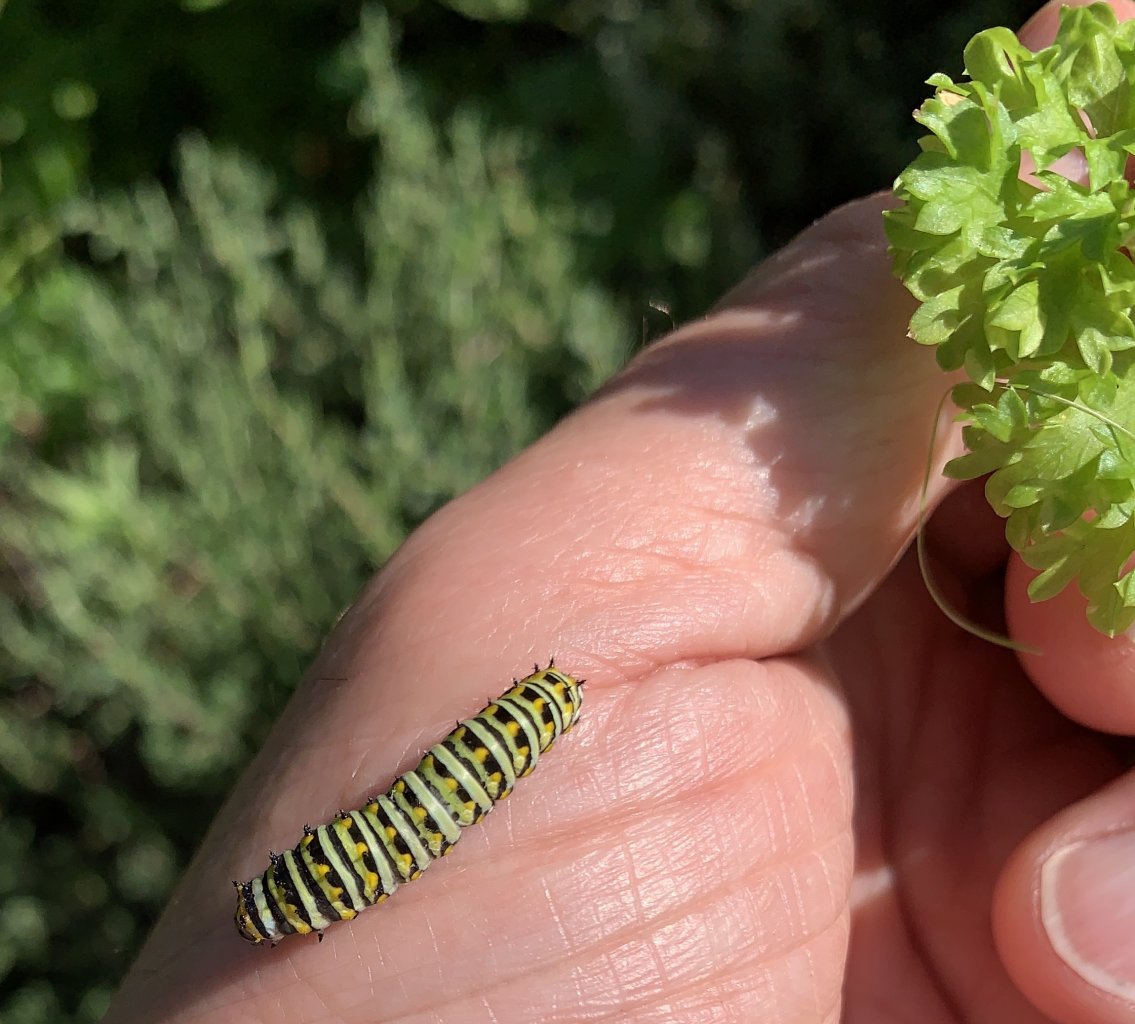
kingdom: Animalia
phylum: Arthropoda
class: Insecta
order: Lepidoptera
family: Papilionidae
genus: Papilio
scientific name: Papilio polyxenes
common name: Black Swallowtail
